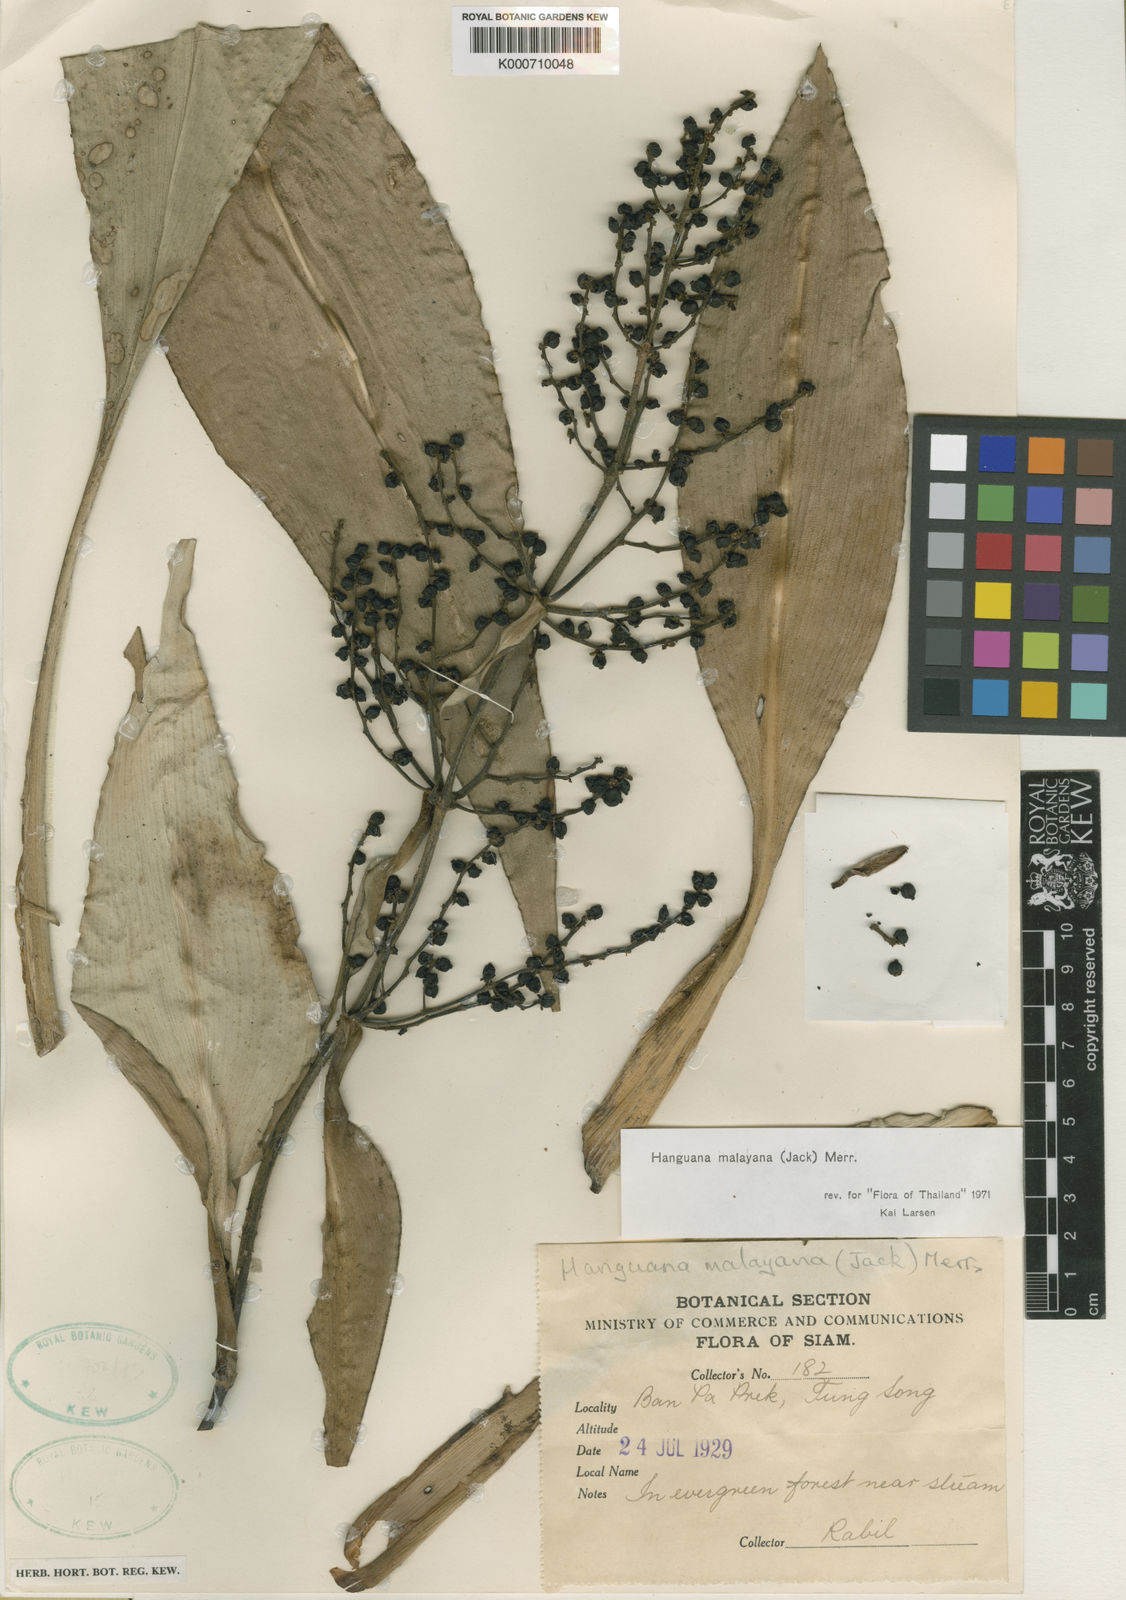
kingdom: Plantae
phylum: Tracheophyta
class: Liliopsida
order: Commelinales
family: Hanguanaceae
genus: Hanguana
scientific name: Hanguana malayana
